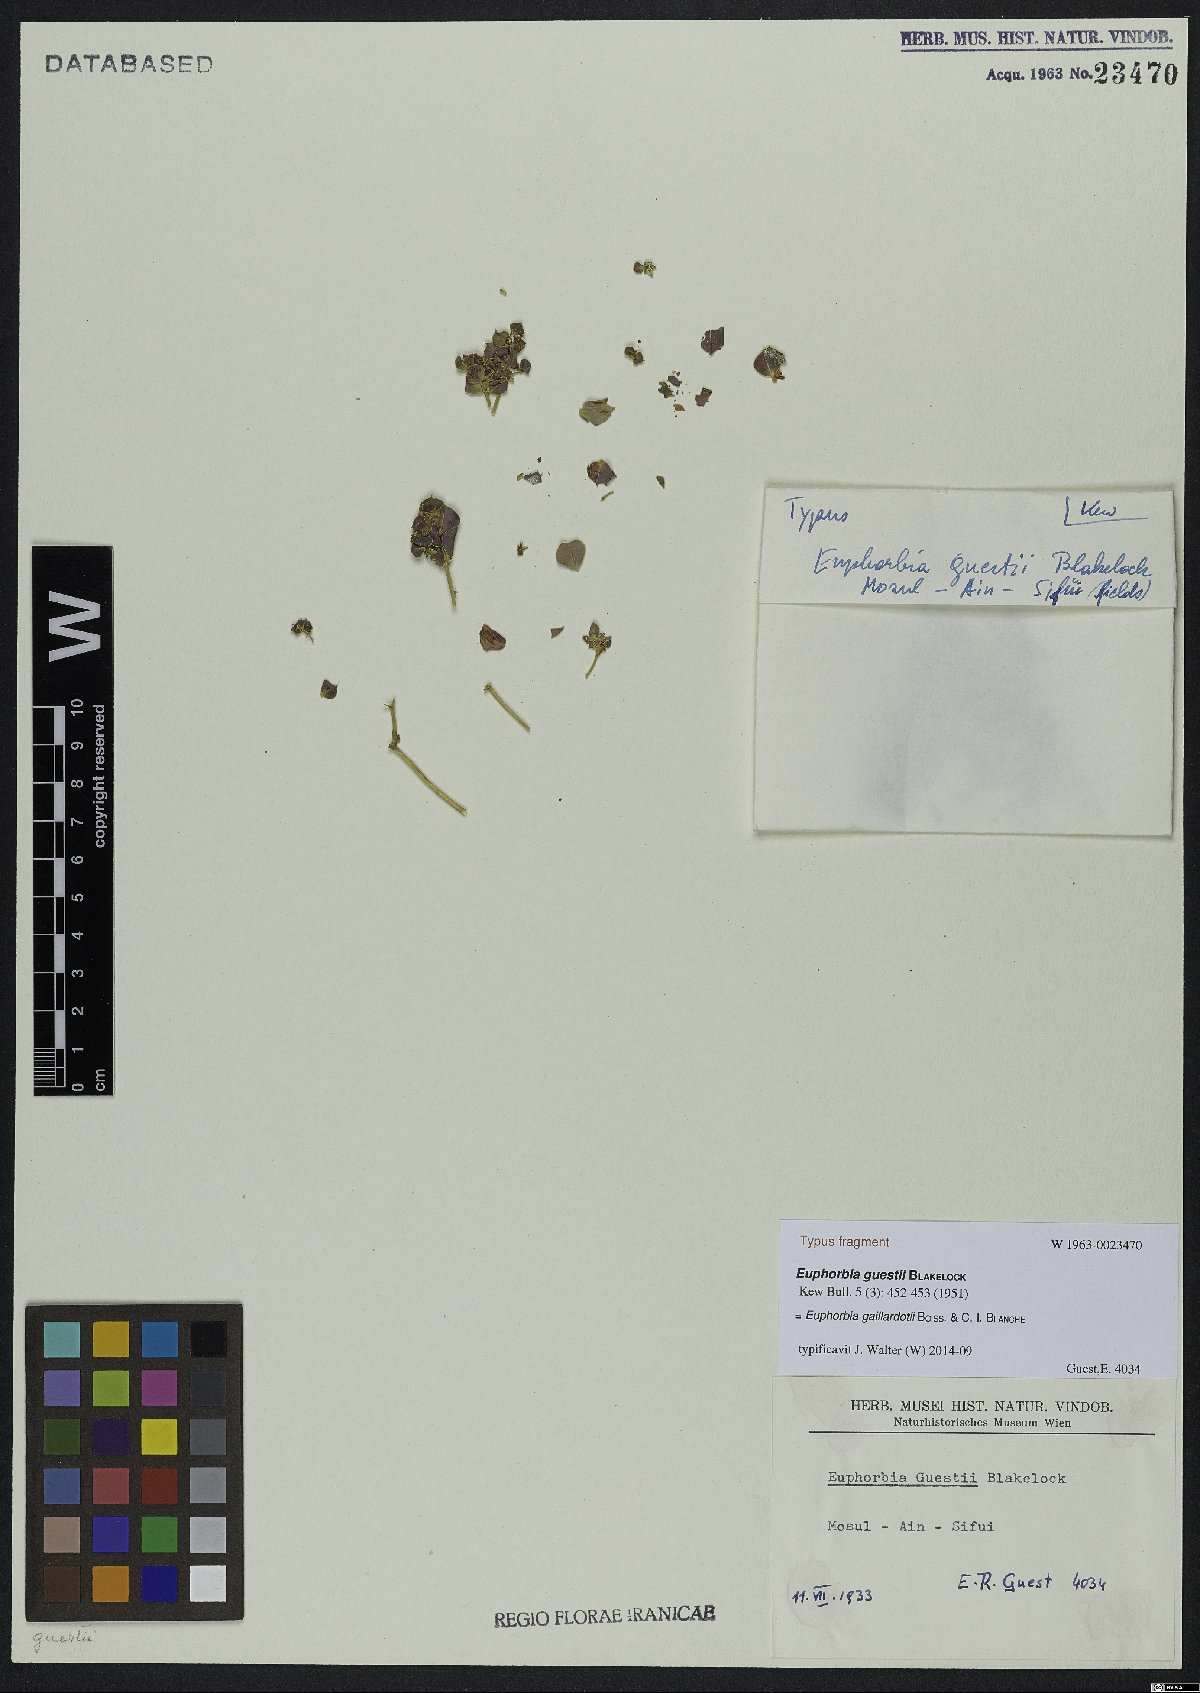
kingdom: Plantae
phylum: Tracheophyta
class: Magnoliopsida
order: Malpighiales
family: Euphorbiaceae
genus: Euphorbia
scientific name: Euphorbia gaillardotii
